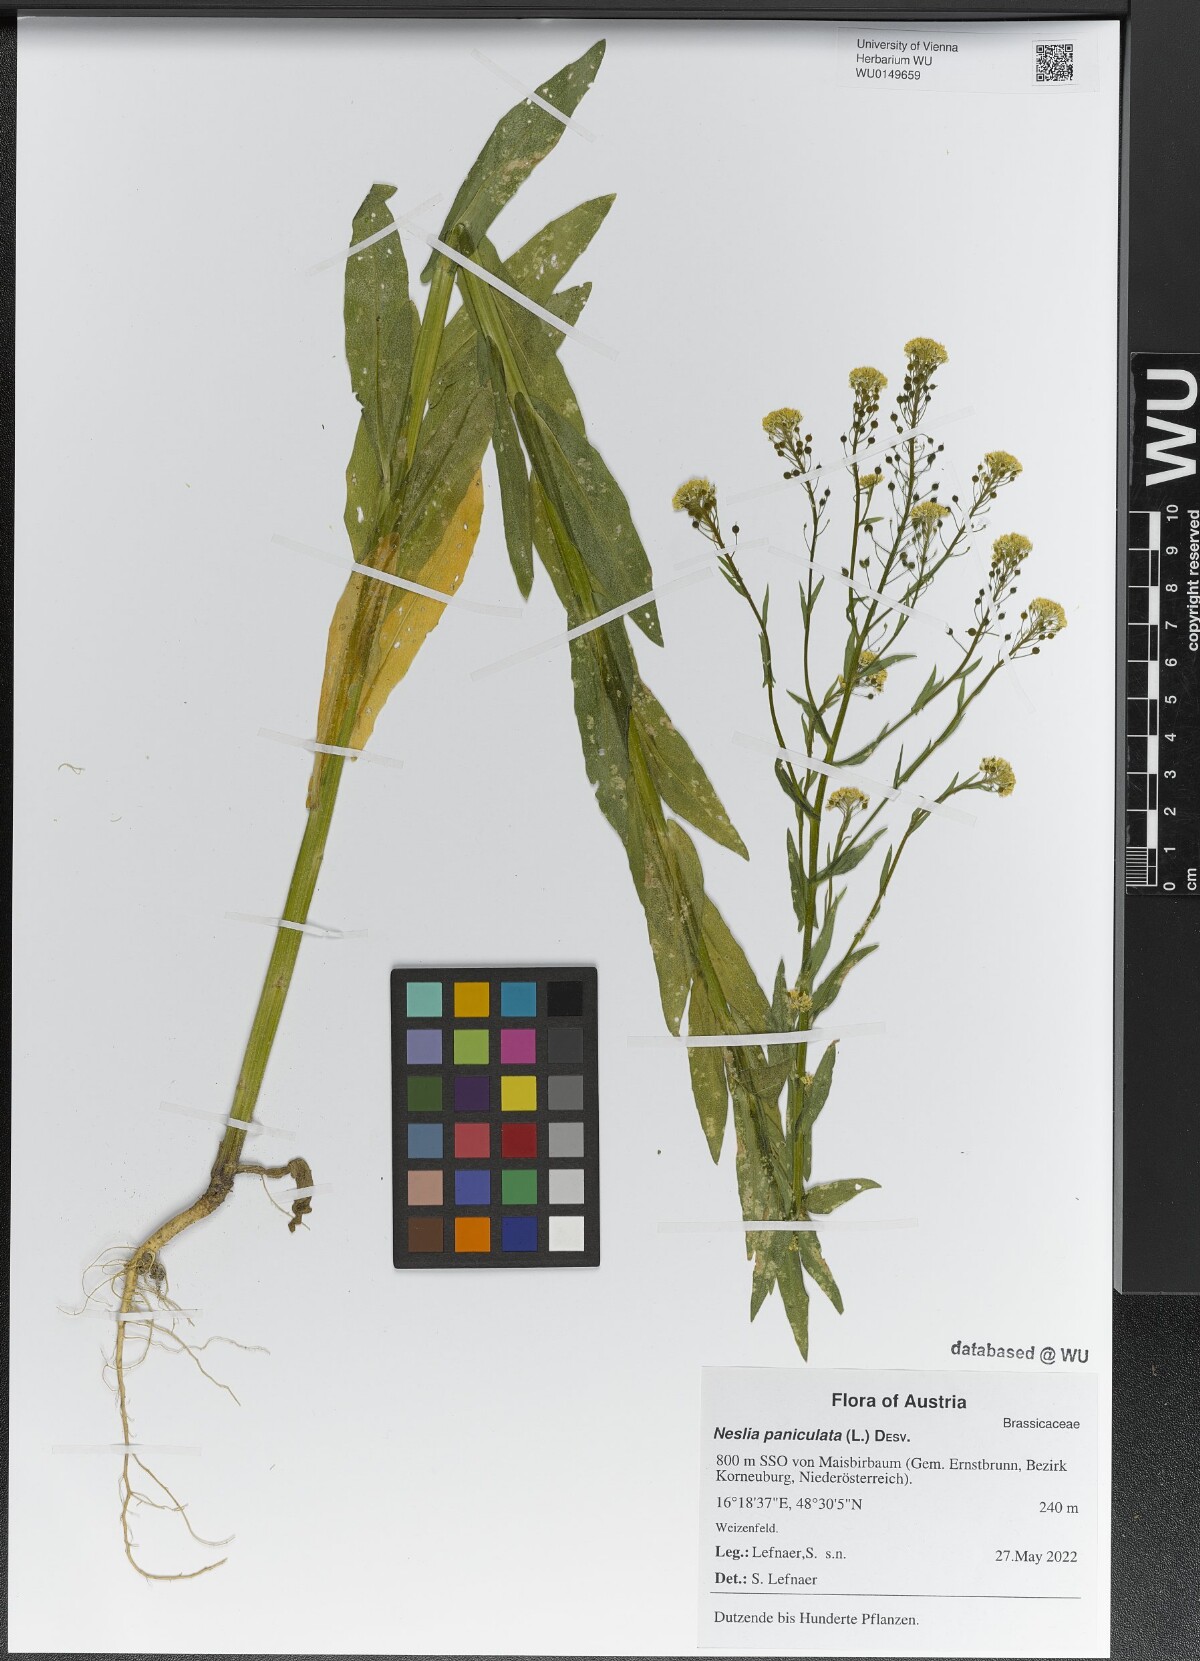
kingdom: Plantae
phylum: Tracheophyta
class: Magnoliopsida
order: Brassicales
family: Brassicaceae
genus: Neslia
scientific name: Neslia paniculata
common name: Ball mustard
